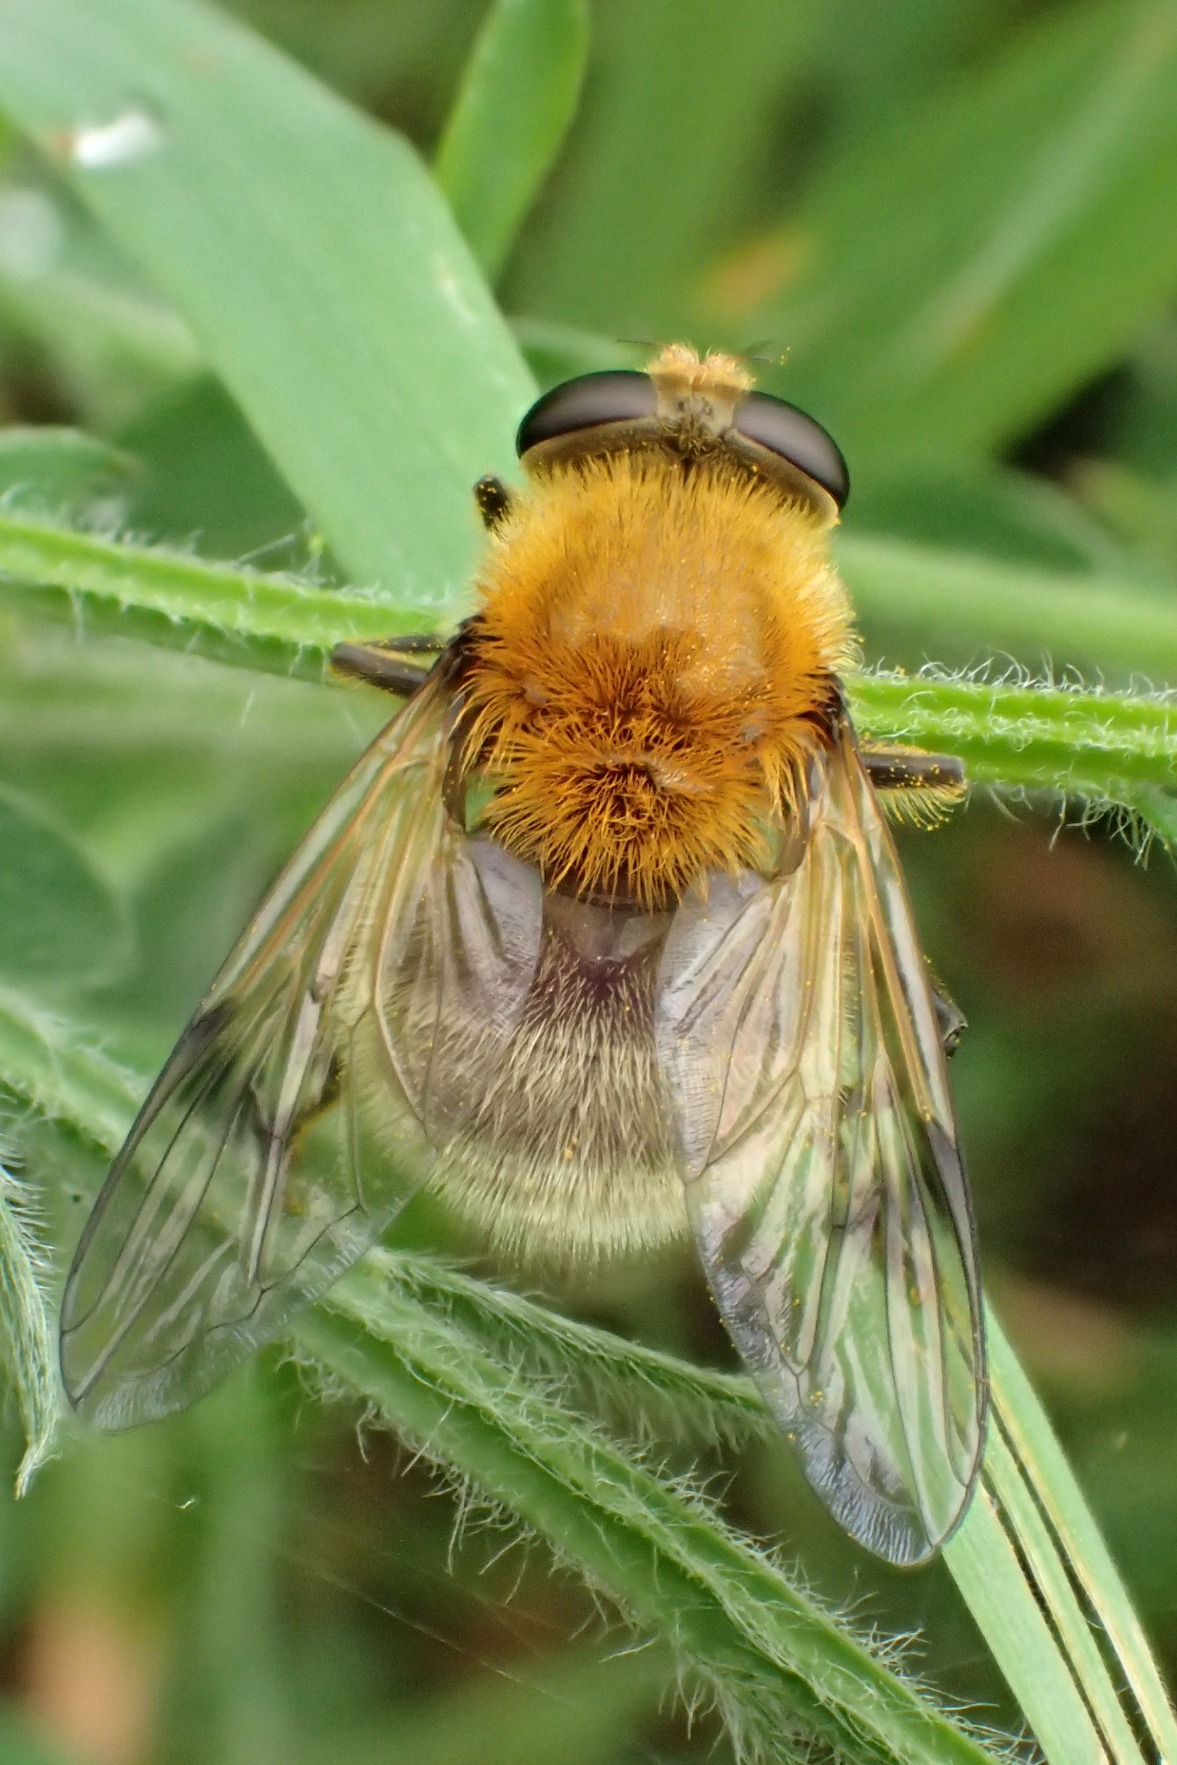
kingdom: Animalia
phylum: Arthropoda
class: Insecta
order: Diptera
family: Syrphidae
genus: Sericomyia
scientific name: Sericomyia superbiens
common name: Brun bjørnesvirreflue
